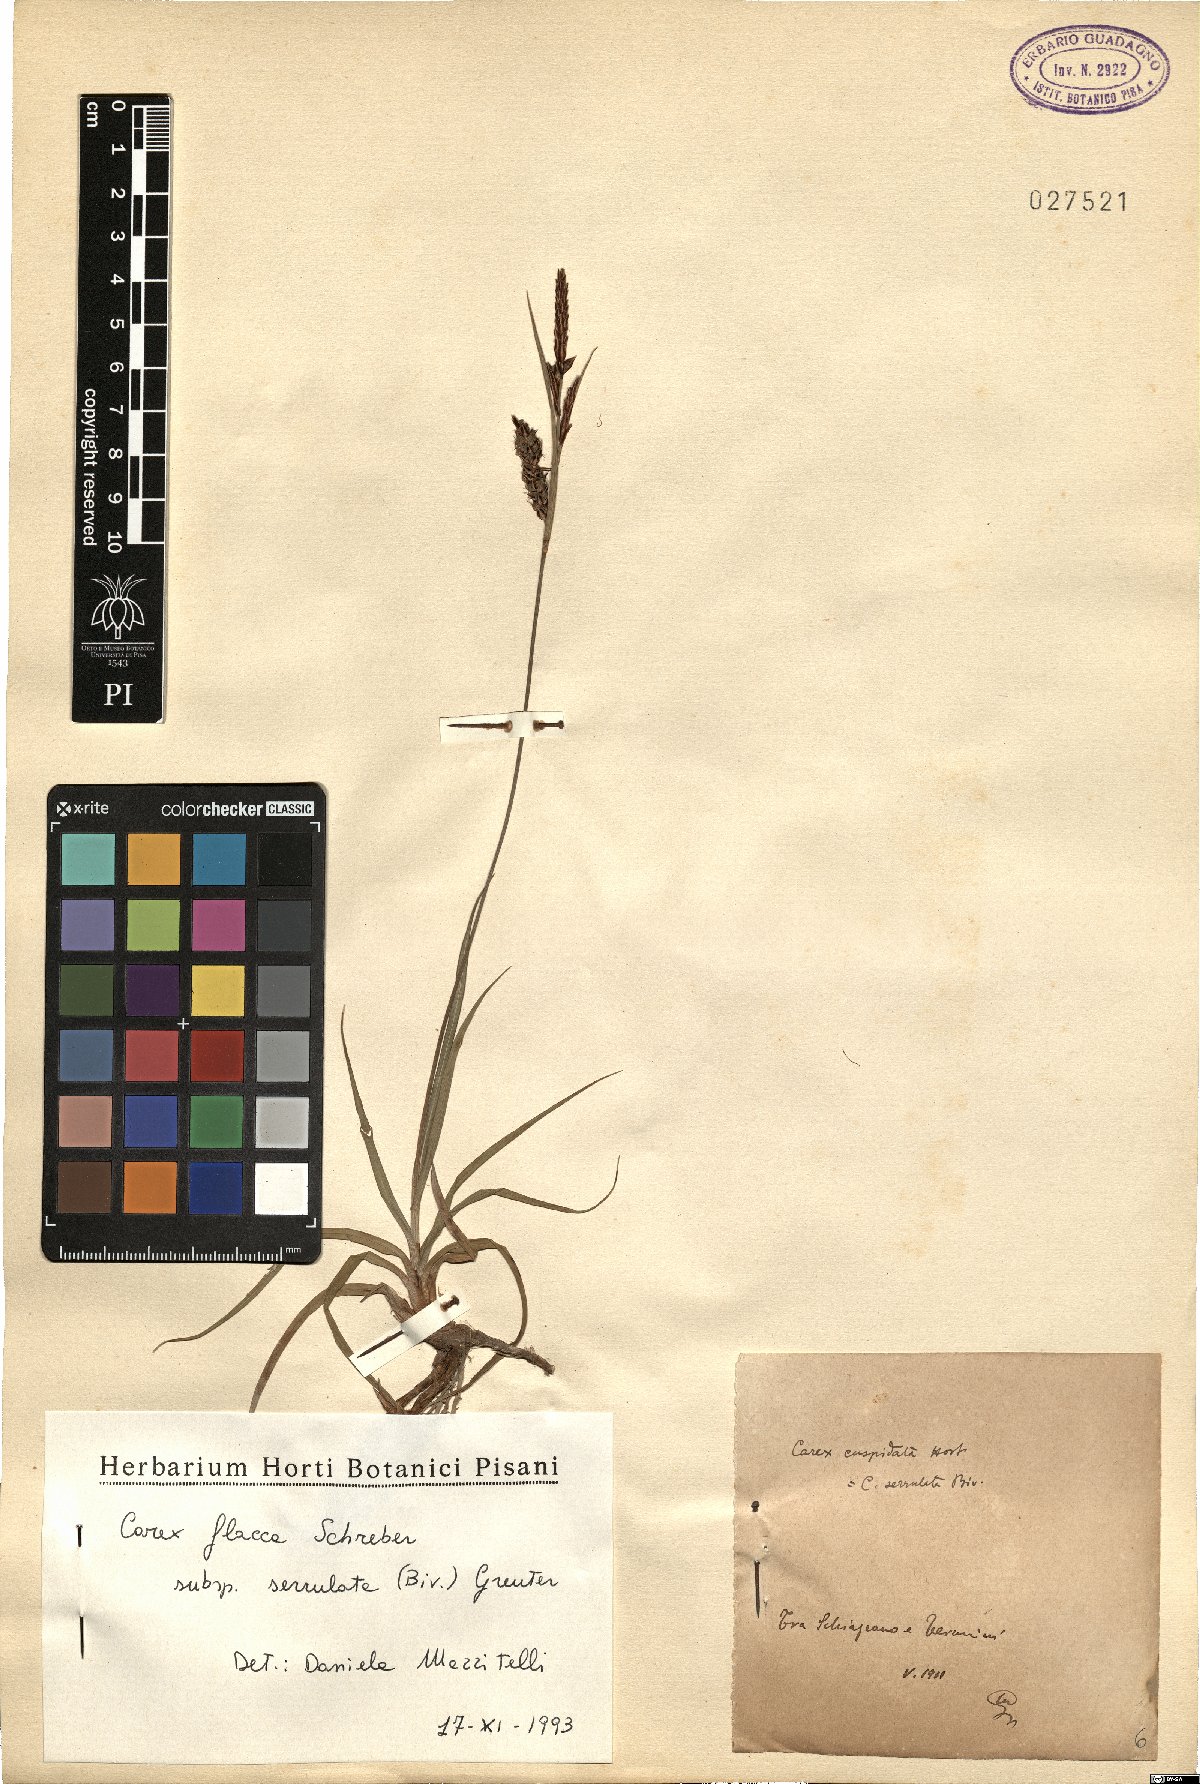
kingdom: Plantae
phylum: Tracheophyta
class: Liliopsida
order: Poales
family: Cyperaceae
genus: Carex
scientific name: Carex flacca
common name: Glaucous sedge
